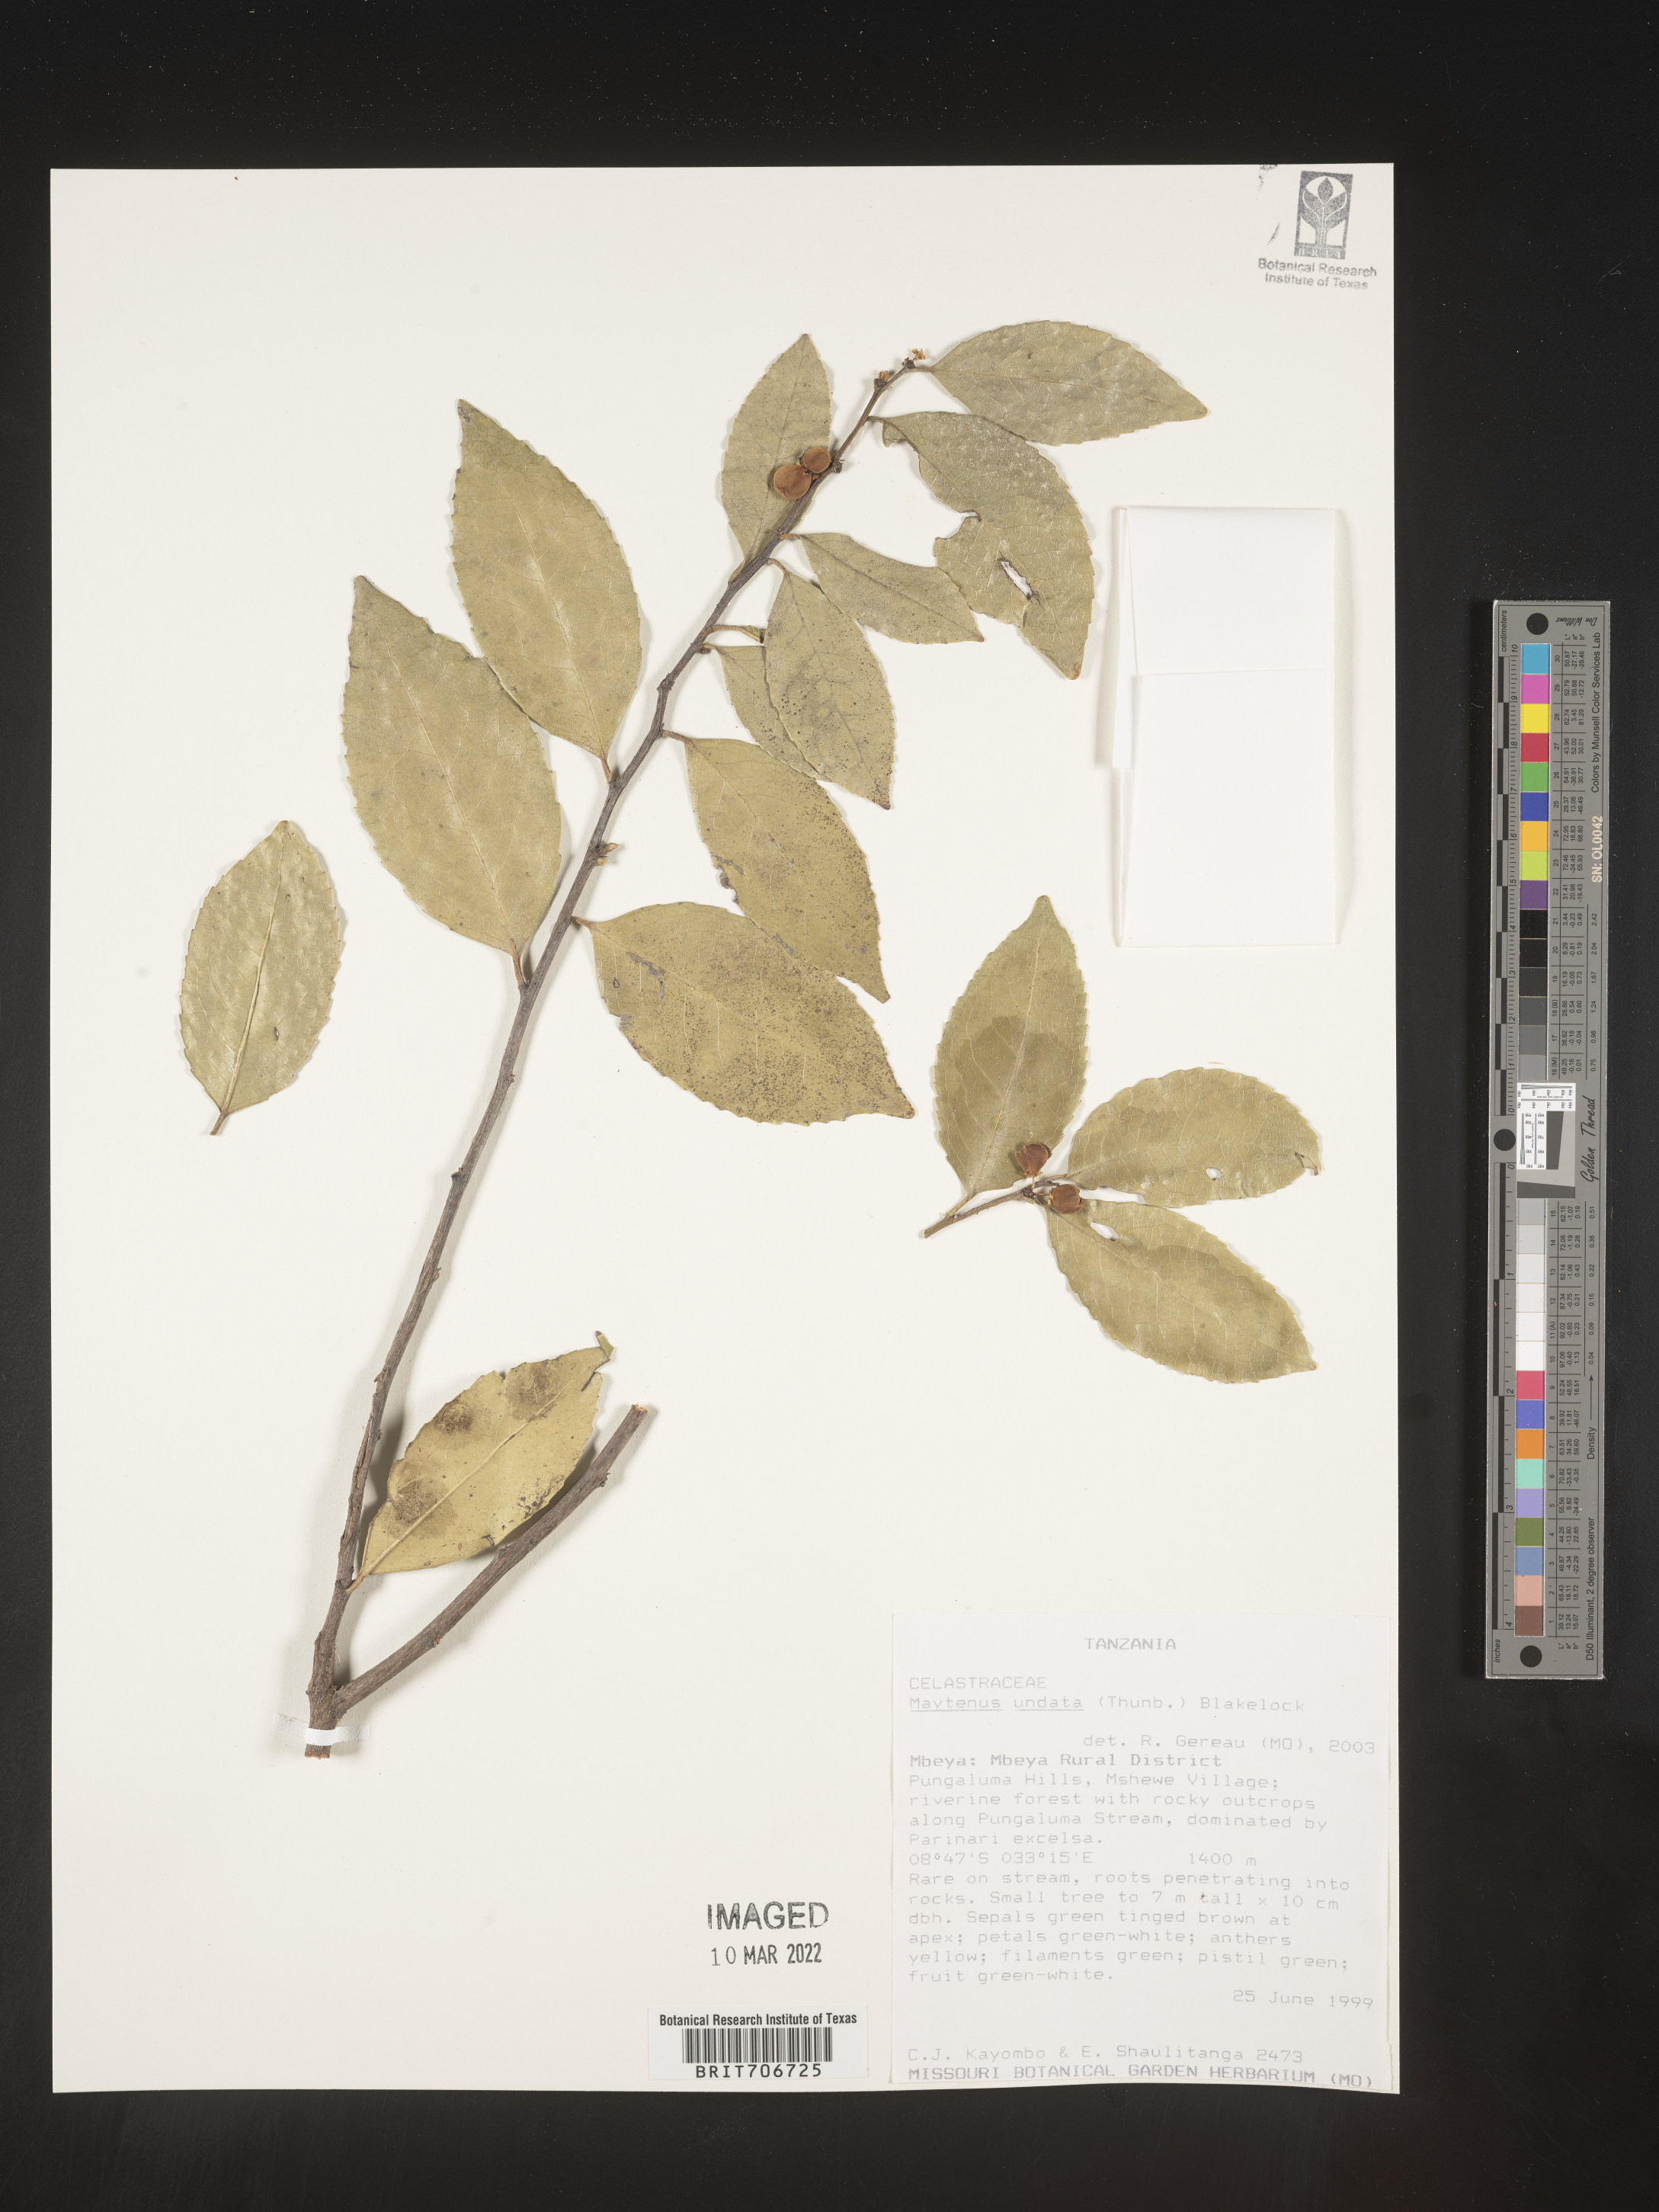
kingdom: Plantae
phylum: Tracheophyta
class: Magnoliopsida
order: Celastrales
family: Celastraceae
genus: Maytenus
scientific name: Maytenus
